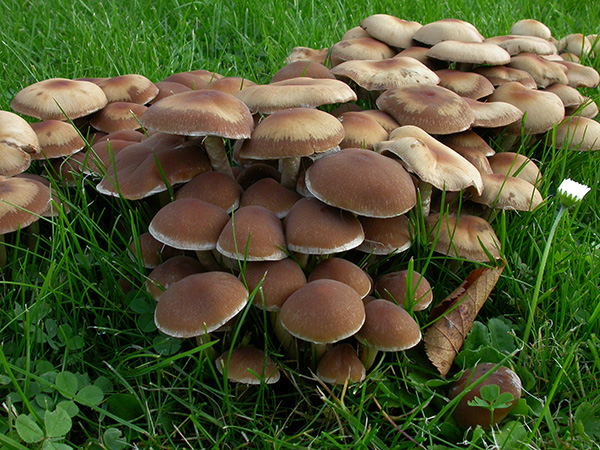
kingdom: Fungi
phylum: Basidiomycota
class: Agaricomycetes
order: Agaricales
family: Psathyrellaceae
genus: Psathyrella
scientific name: Psathyrella piluliformis
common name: lysstokket mørkhat
